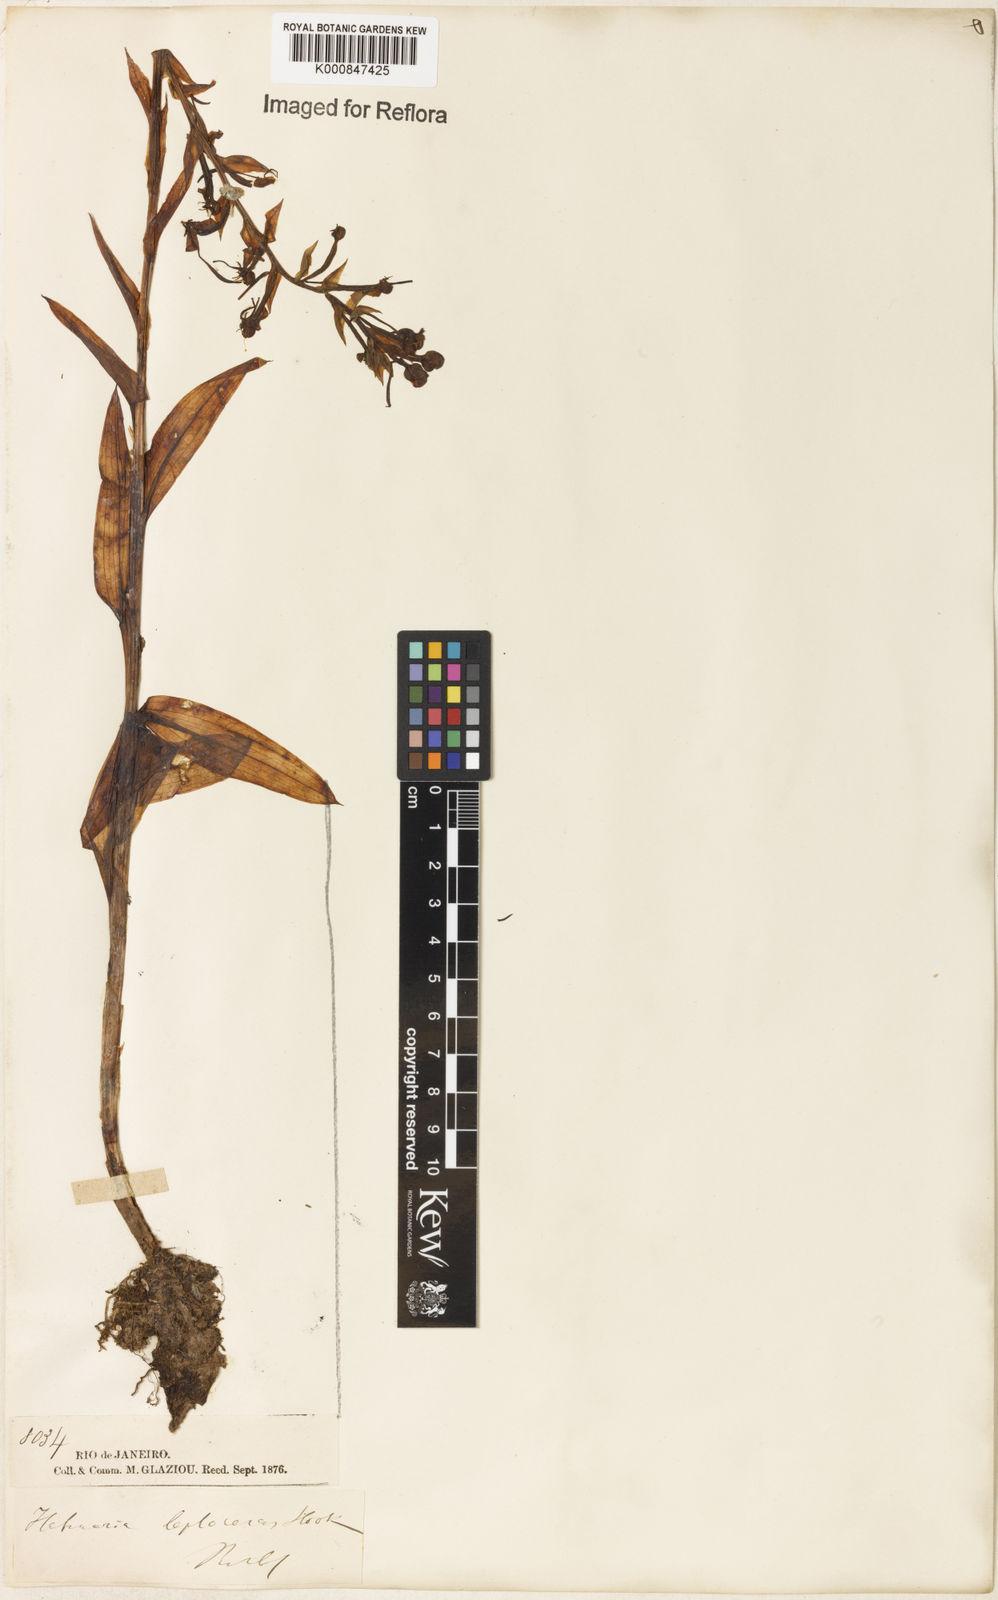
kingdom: Plantae
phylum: Tracheophyta
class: Liliopsida
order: Asparagales
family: Orchidaceae
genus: Habenaria
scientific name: Habenaria leptoceras
